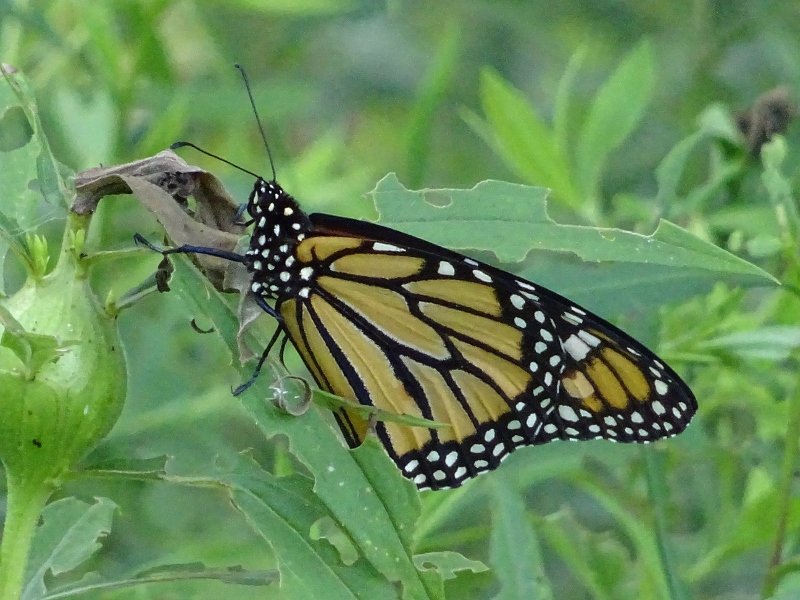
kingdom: Animalia
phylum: Arthropoda
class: Insecta
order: Lepidoptera
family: Nymphalidae
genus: Danaus
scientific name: Danaus plexippus
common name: Monarch
